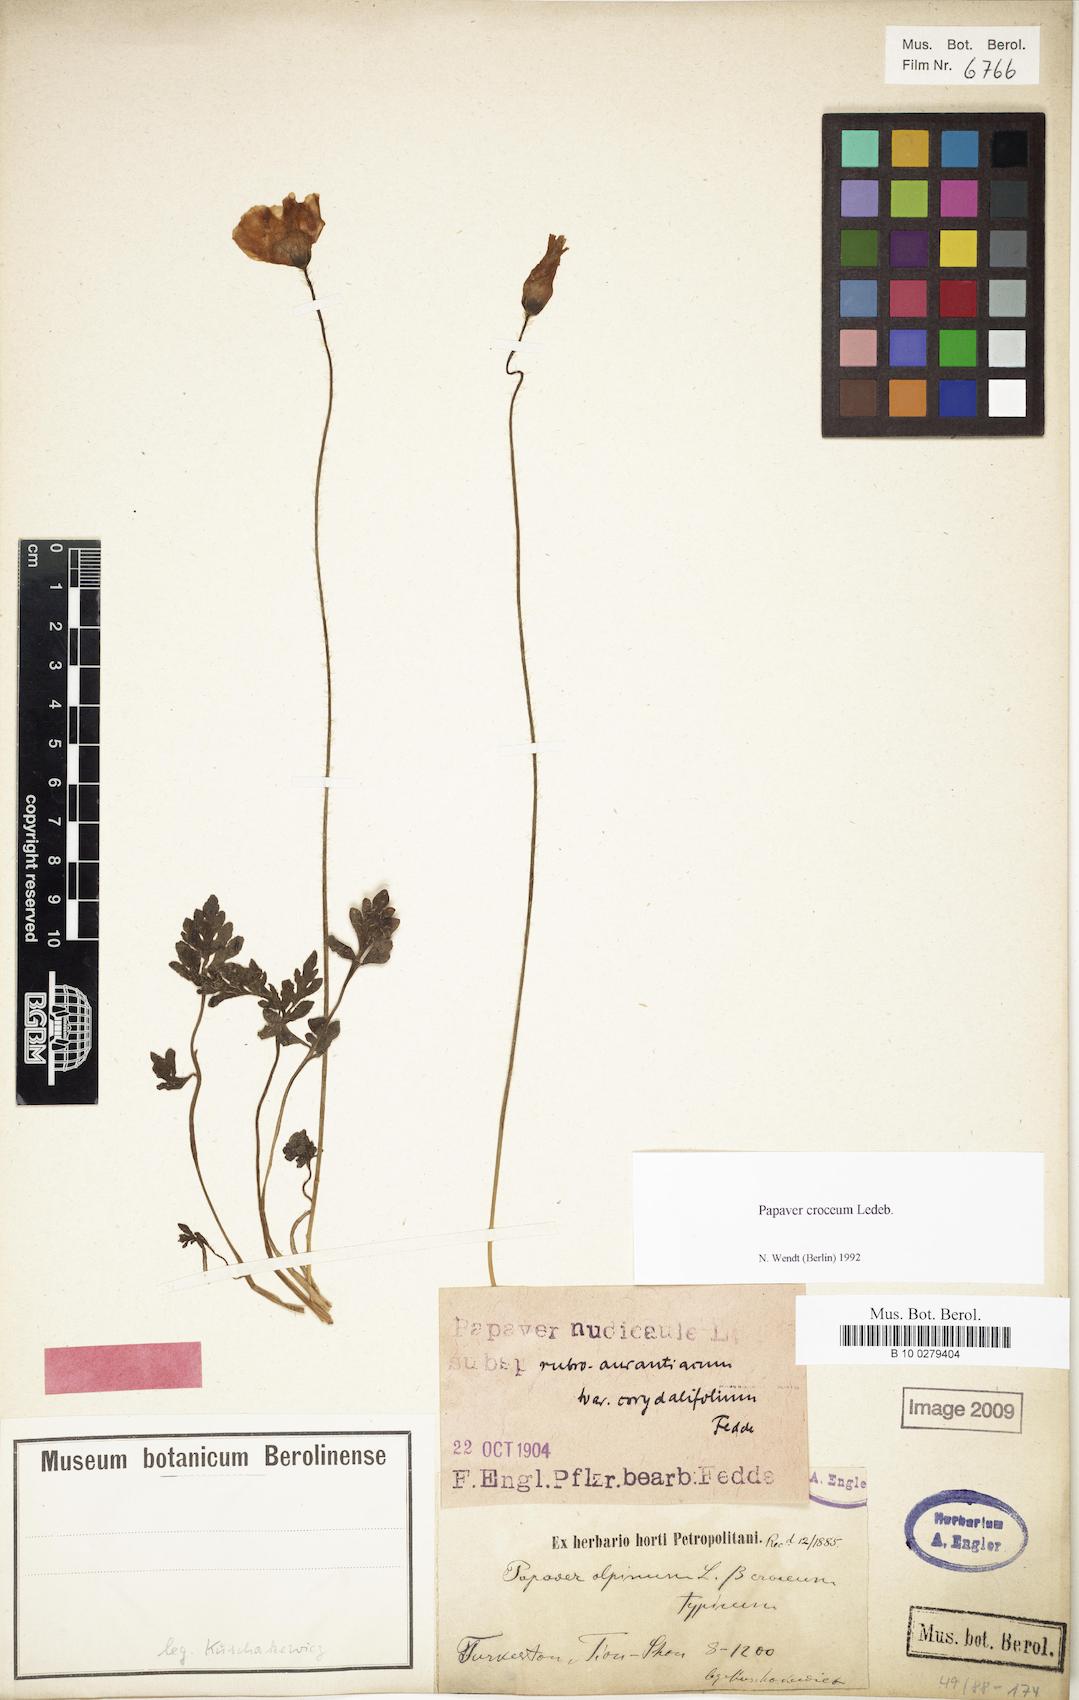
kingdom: Plantae
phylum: Tracheophyta
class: Magnoliopsida
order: Ranunculales
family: Papaveraceae
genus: Papaver
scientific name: Papaver croceum
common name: Siberian poppy
